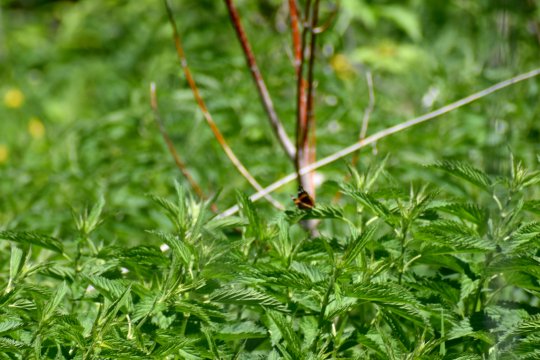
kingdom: Animalia
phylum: Arthropoda
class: Insecta
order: Lepidoptera
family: Nymphalidae
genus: Vanessa
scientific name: Vanessa atalanta
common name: Red Admiral
